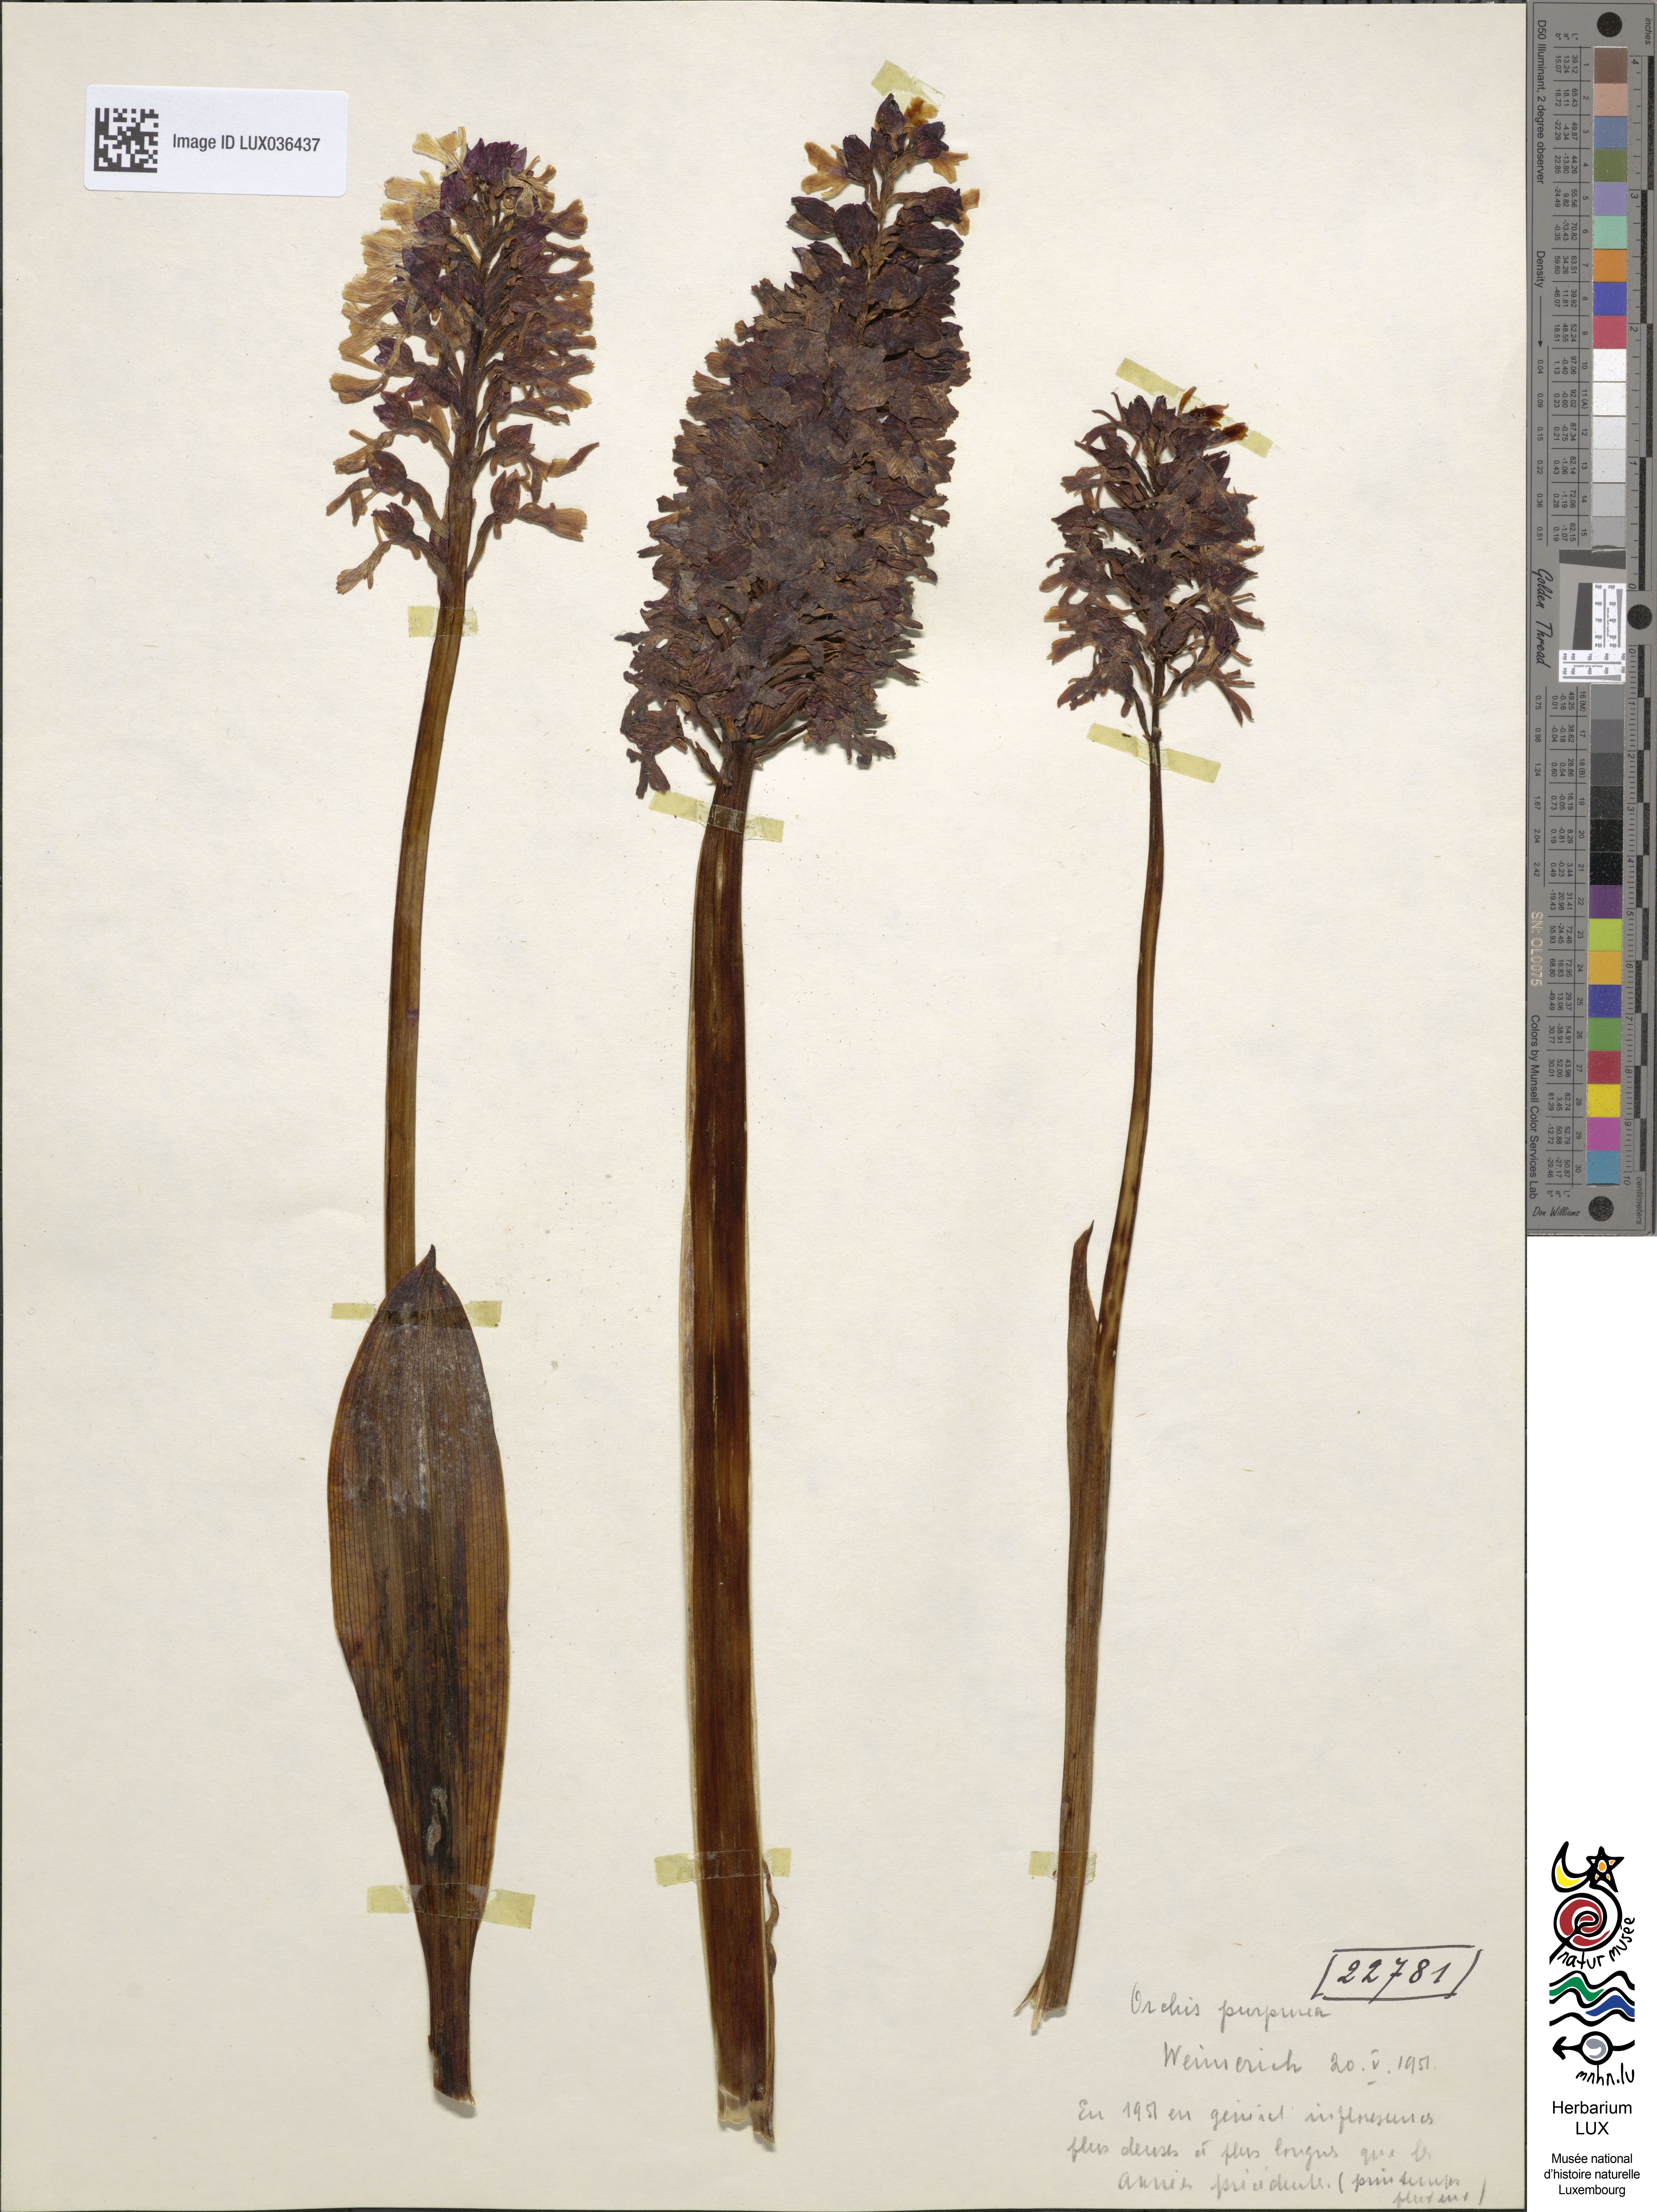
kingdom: Plantae
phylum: Tracheophyta
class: Liliopsida
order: Asparagales
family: Orchidaceae
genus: Orchis
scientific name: Orchis purpurea
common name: Lady orchid
